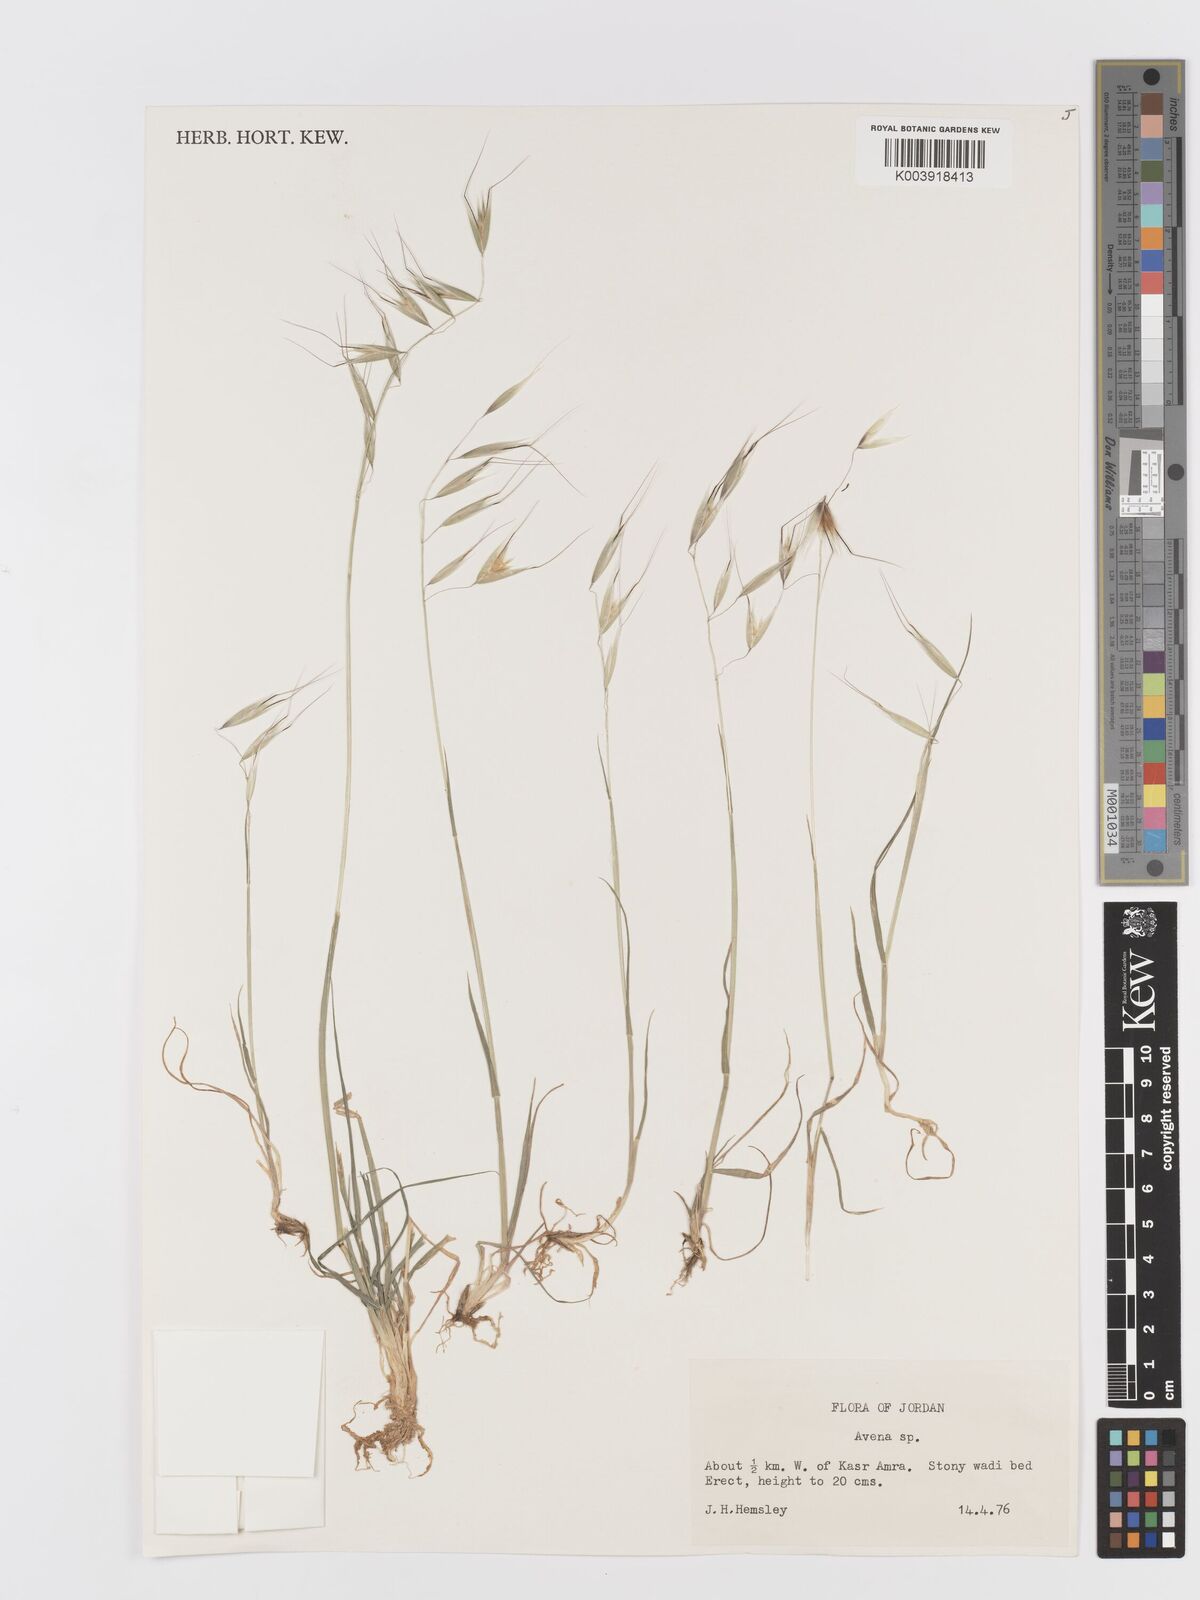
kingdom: Plantae
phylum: Tracheophyta
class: Liliopsida
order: Poales
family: Poaceae
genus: Avena
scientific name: Avena
